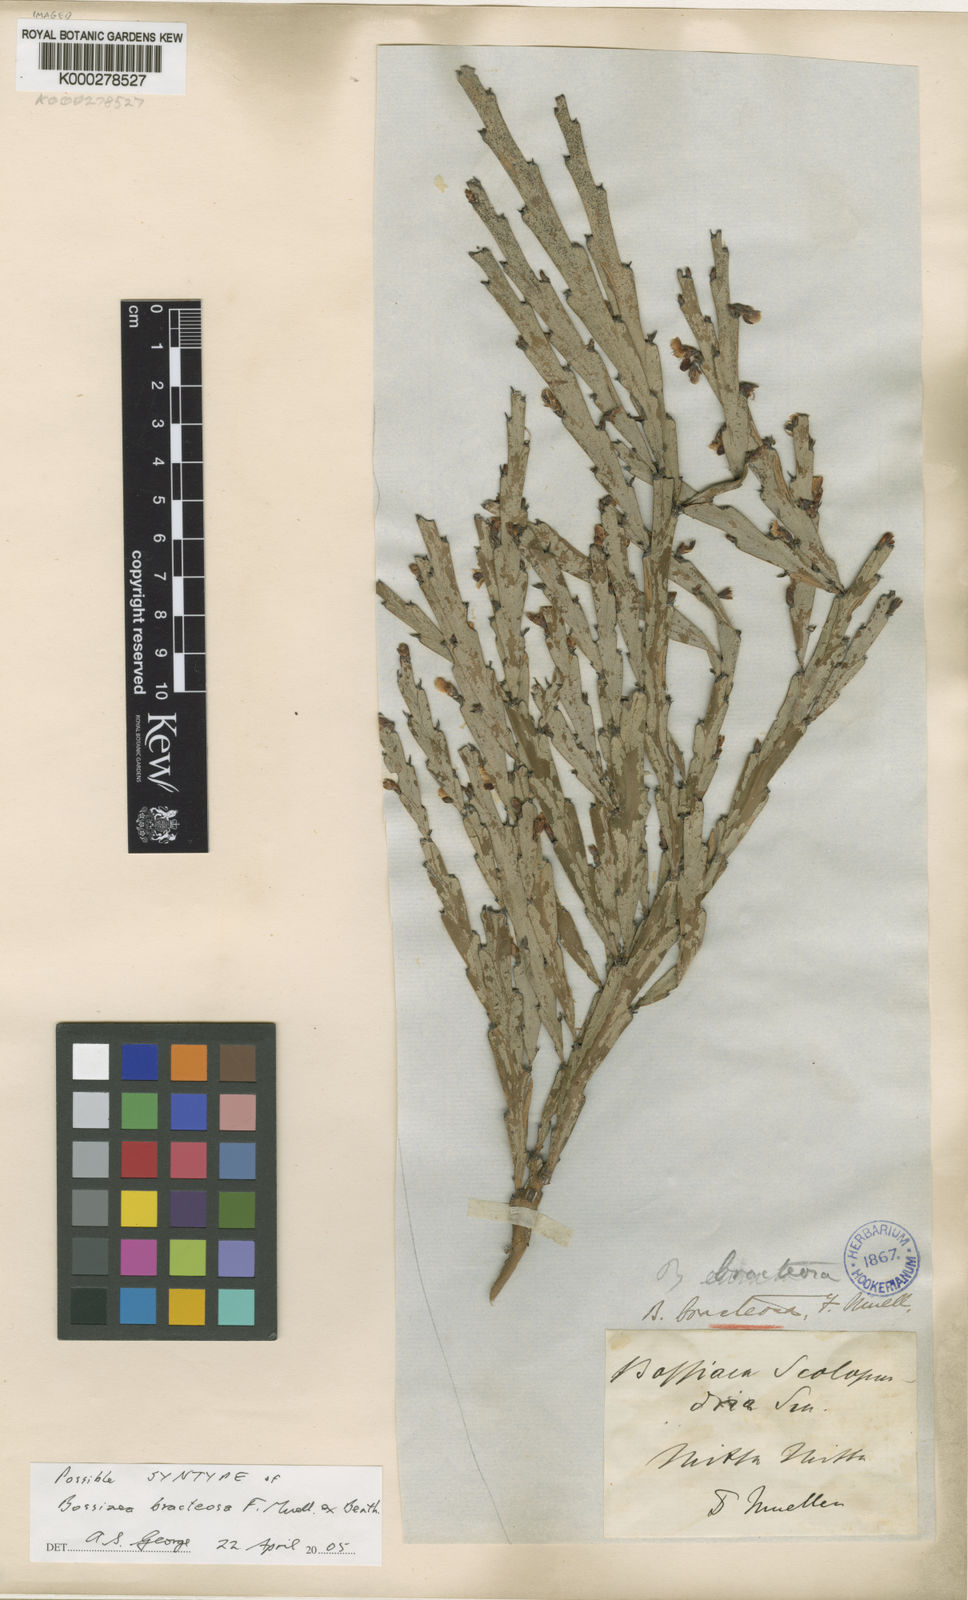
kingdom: Plantae
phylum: Tracheophyta
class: Magnoliopsida
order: Fabales
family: Fabaceae
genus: Bossiaea
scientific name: Bossiaea bracteosa
